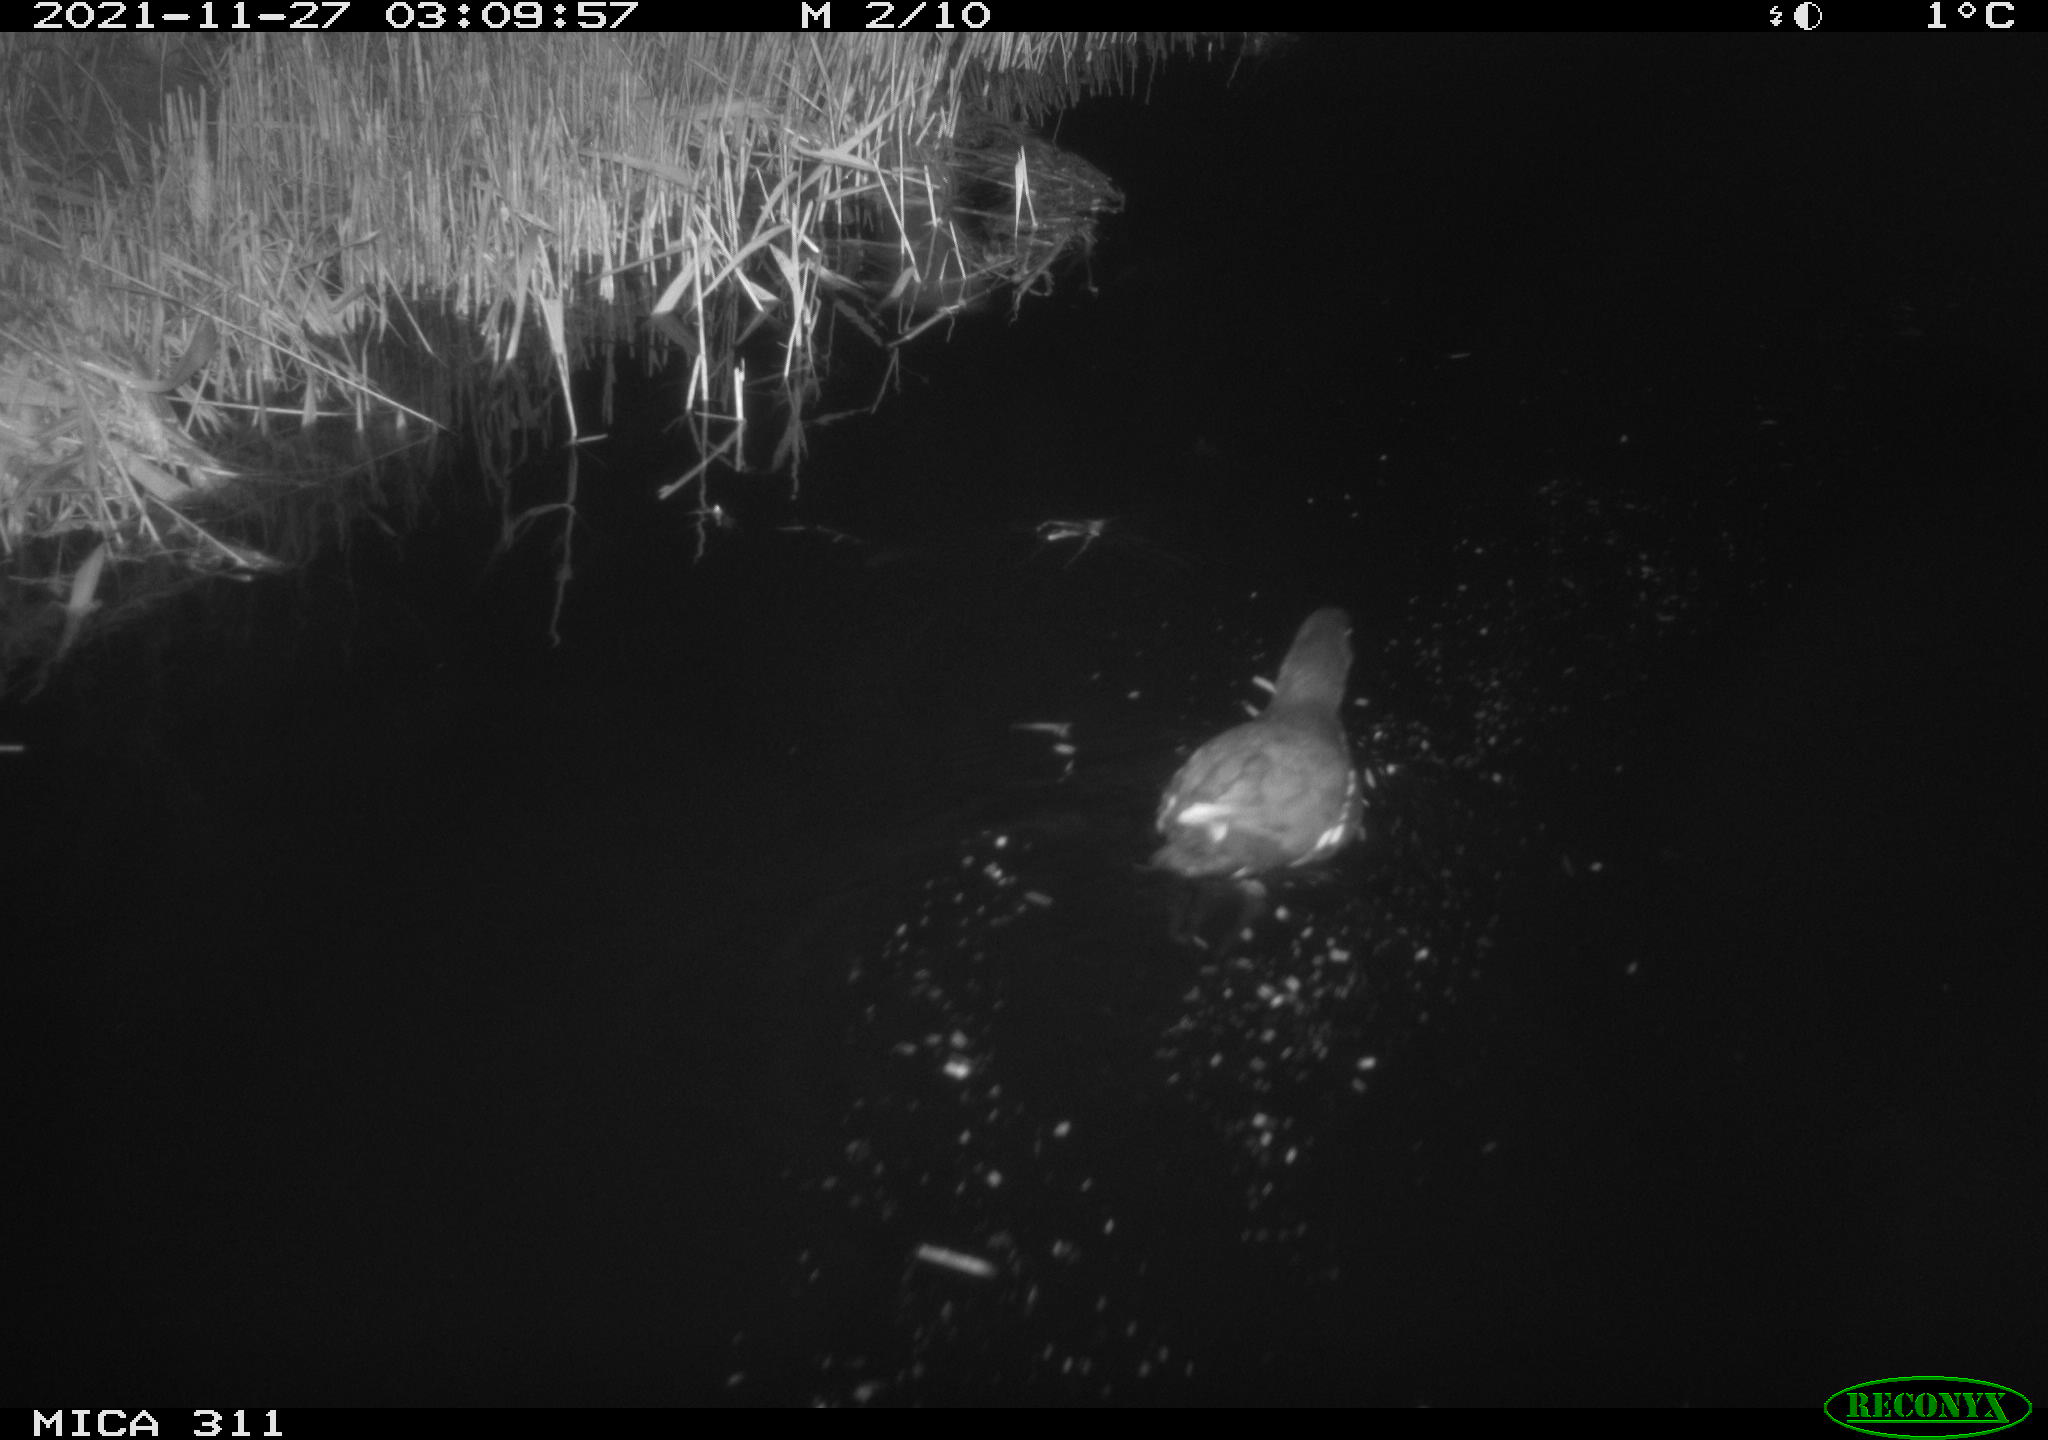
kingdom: Animalia
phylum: Chordata
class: Aves
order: Gruiformes
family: Rallidae
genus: Gallinula
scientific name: Gallinula chloropus
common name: Common moorhen
